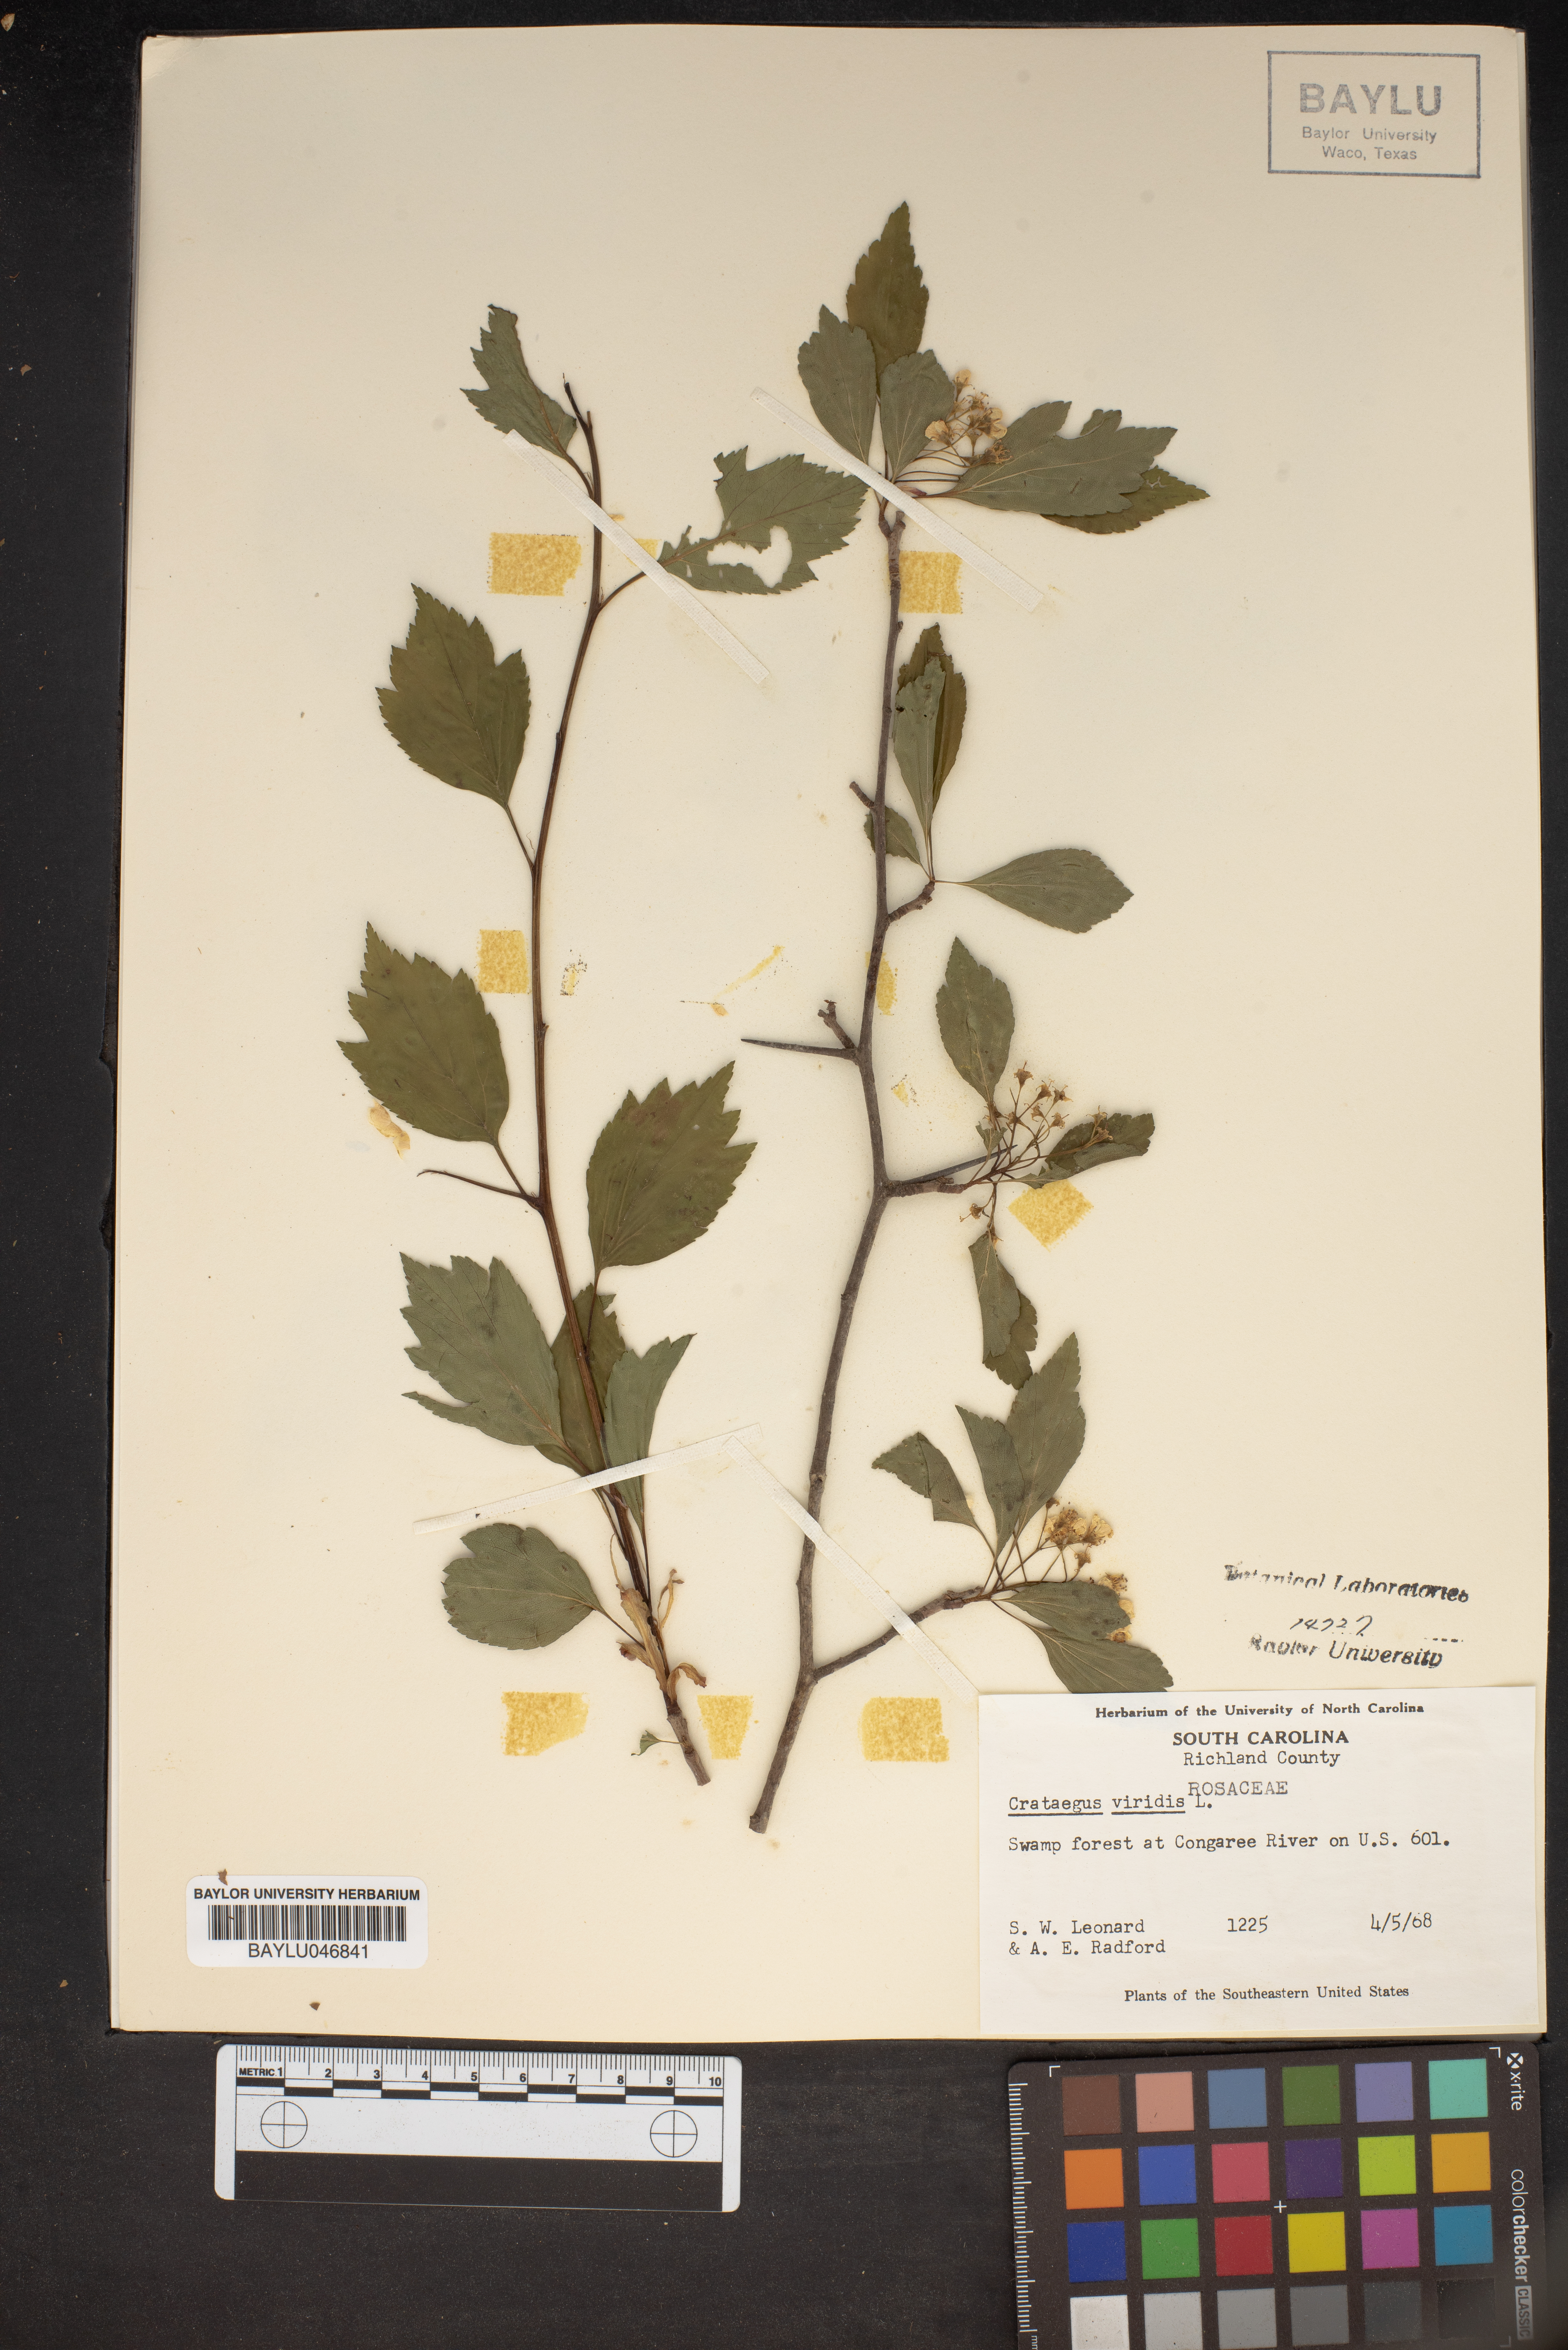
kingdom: Plantae
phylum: Tracheophyta
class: Magnoliopsida
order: Rosales
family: Rosaceae
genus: Crataegus
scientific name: Crataegus viridis
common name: Southernthorn
